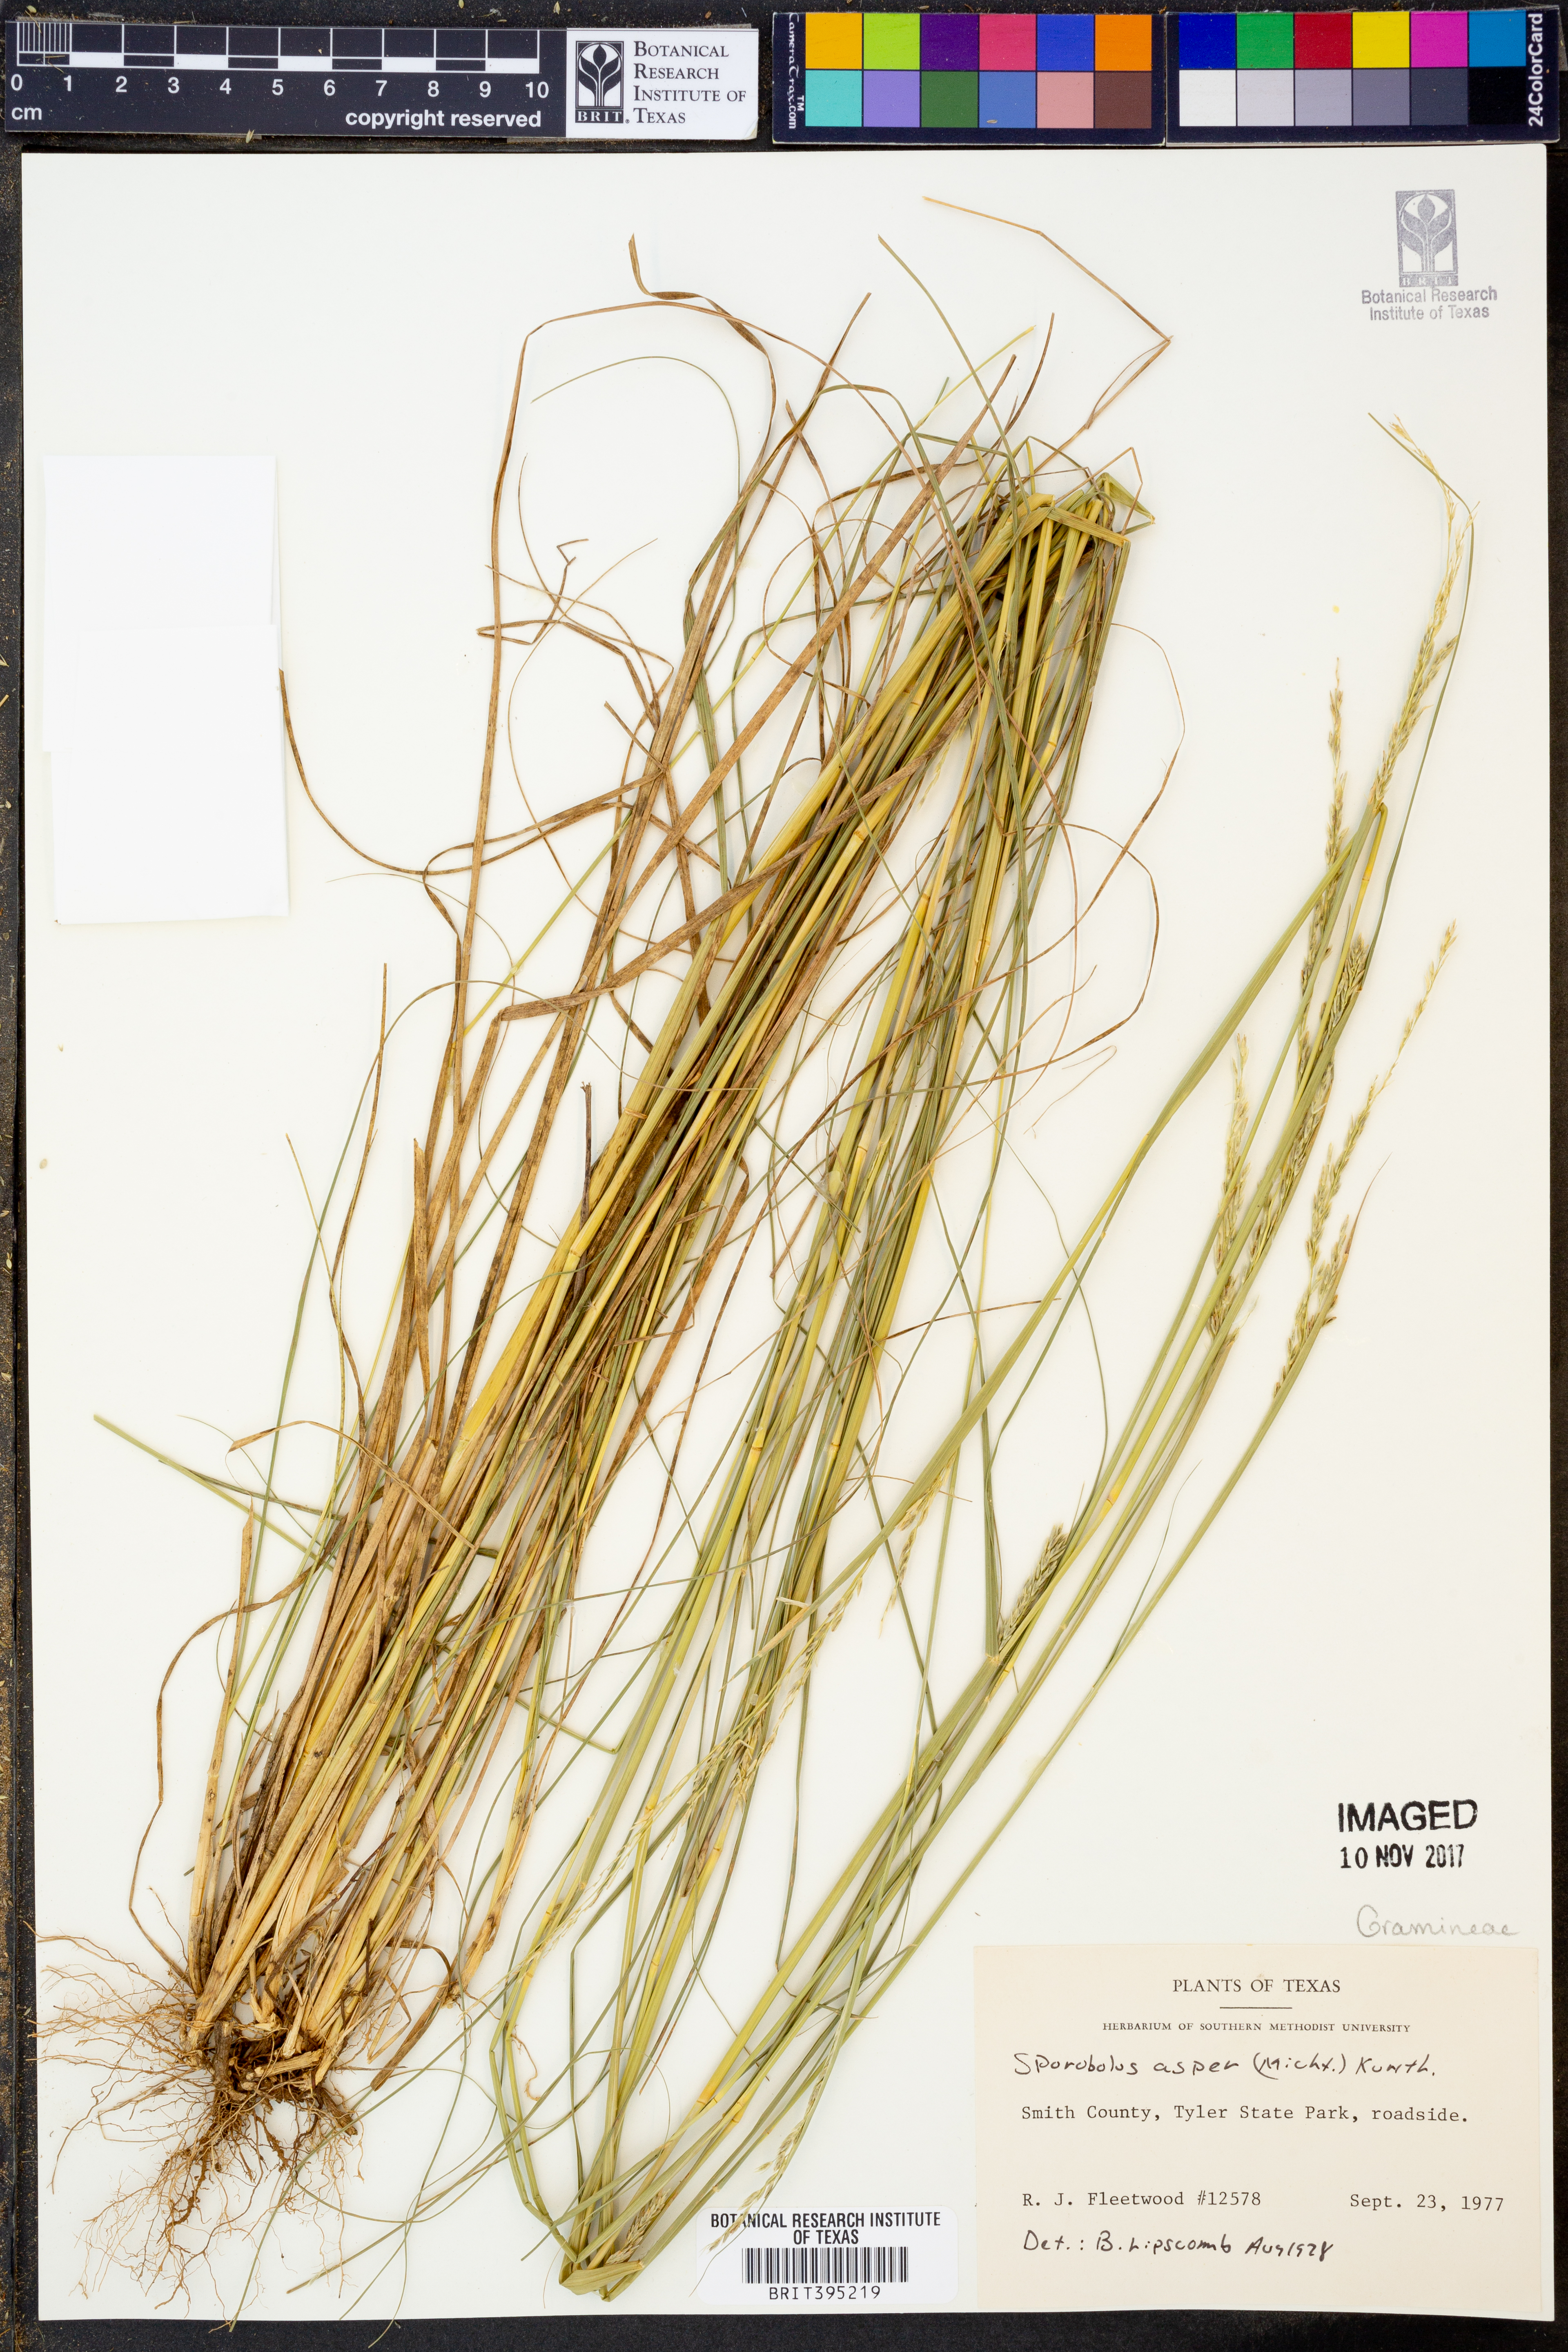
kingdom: Plantae
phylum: Tracheophyta
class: Liliopsida
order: Poales
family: Poaceae
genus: Sporobolus
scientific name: Sporobolus compositus
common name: Rough dropseed
